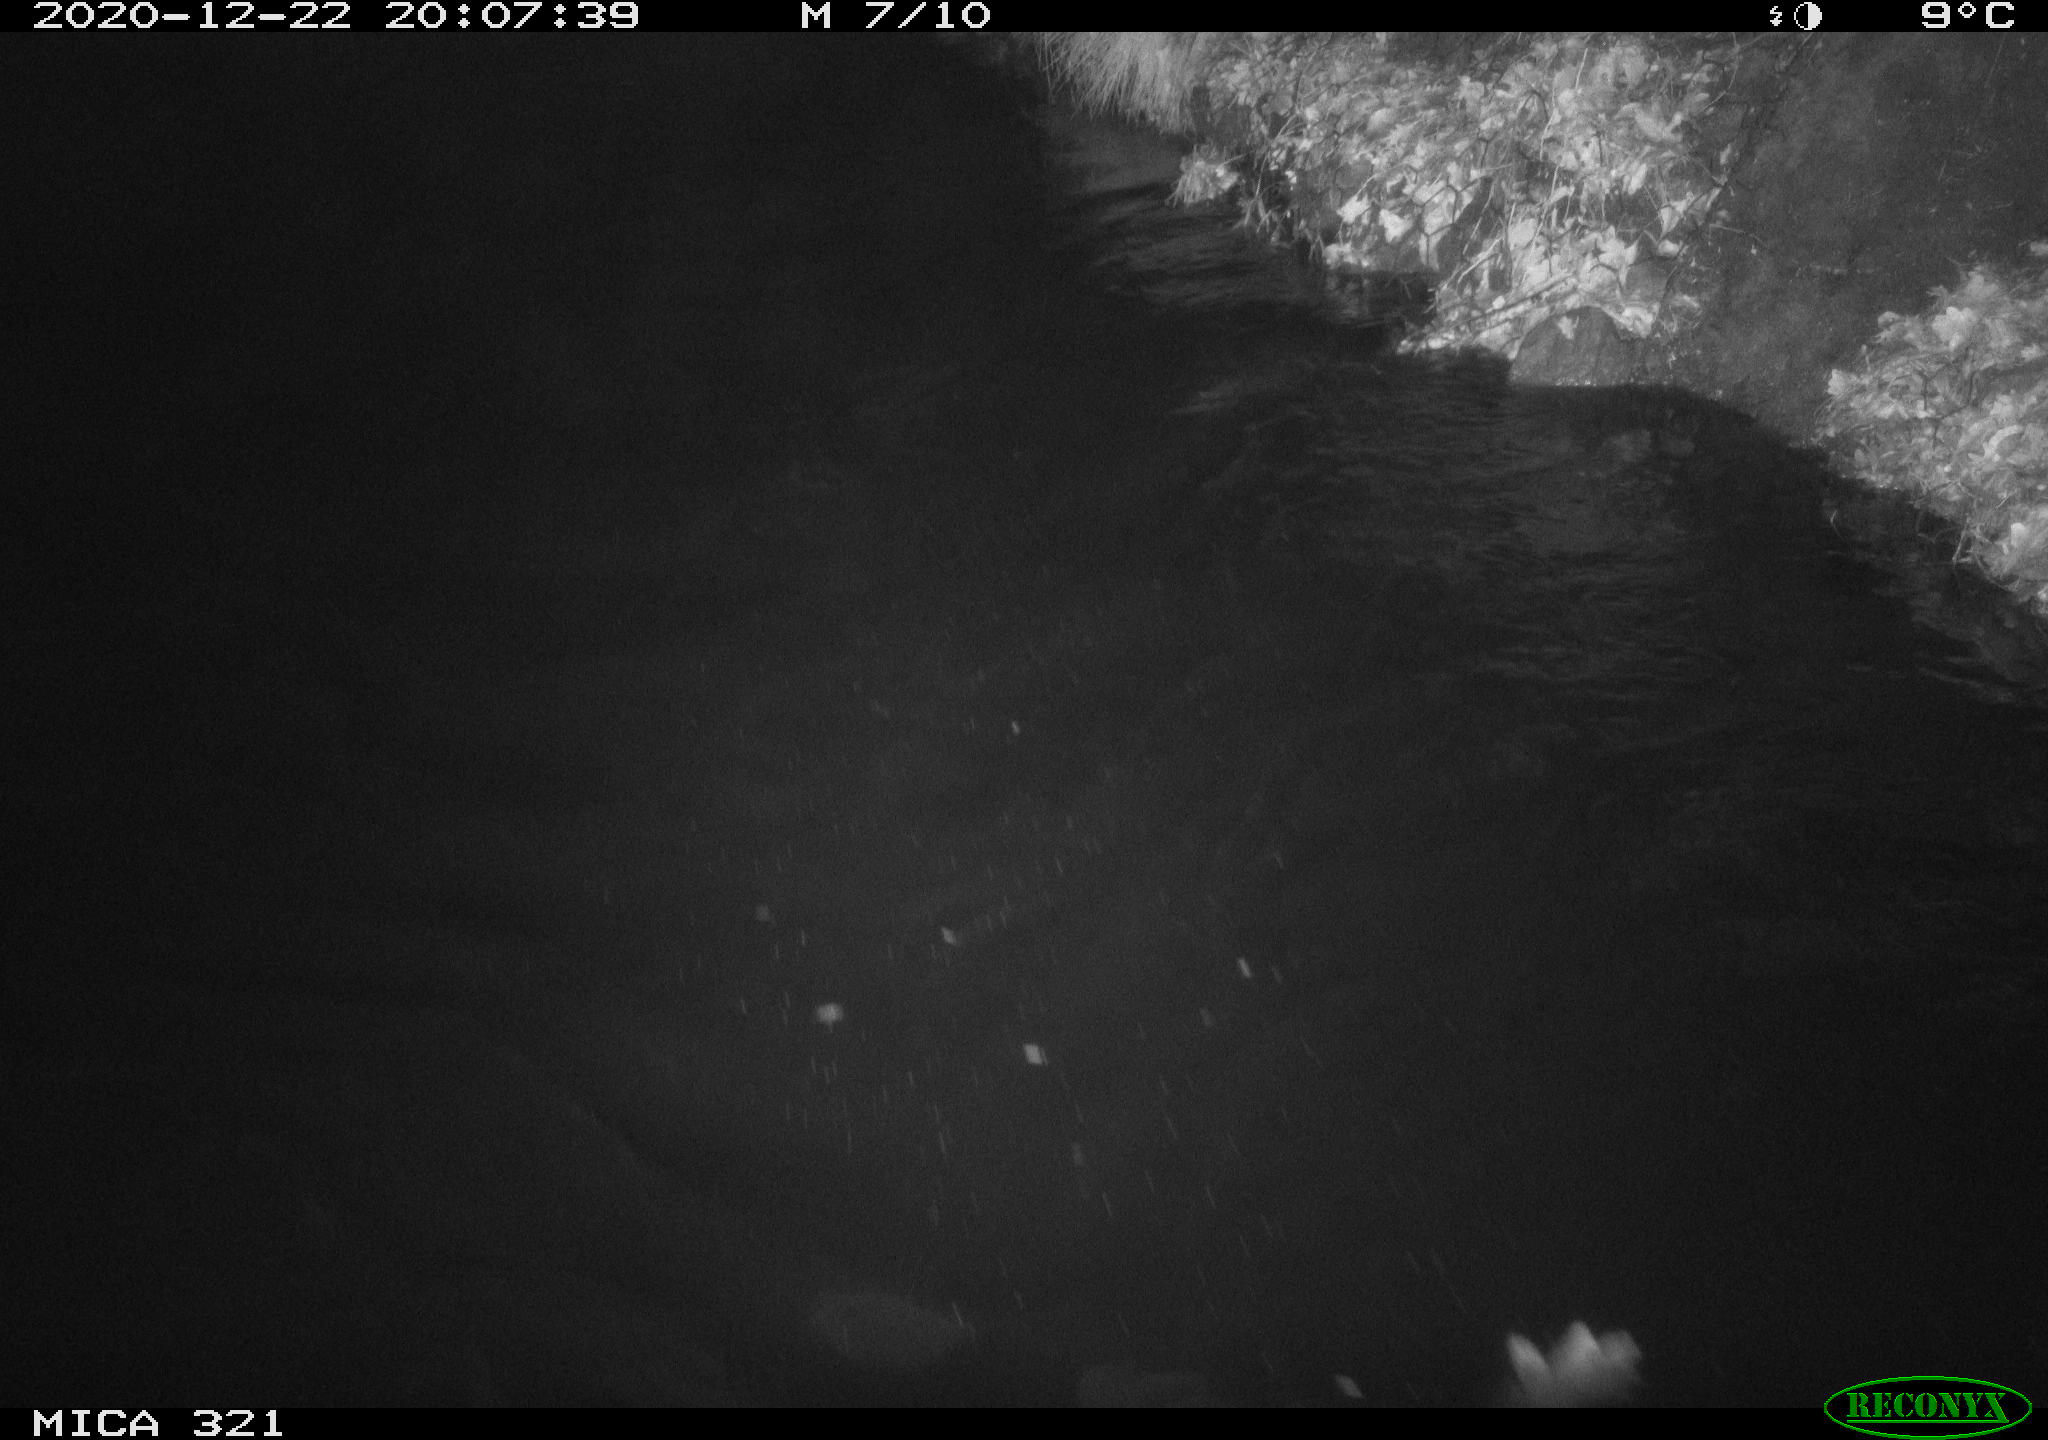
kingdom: Animalia
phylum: Chordata
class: Aves
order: Anseriformes
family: Anatidae
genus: Anas
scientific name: Anas platyrhynchos
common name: Mallard
